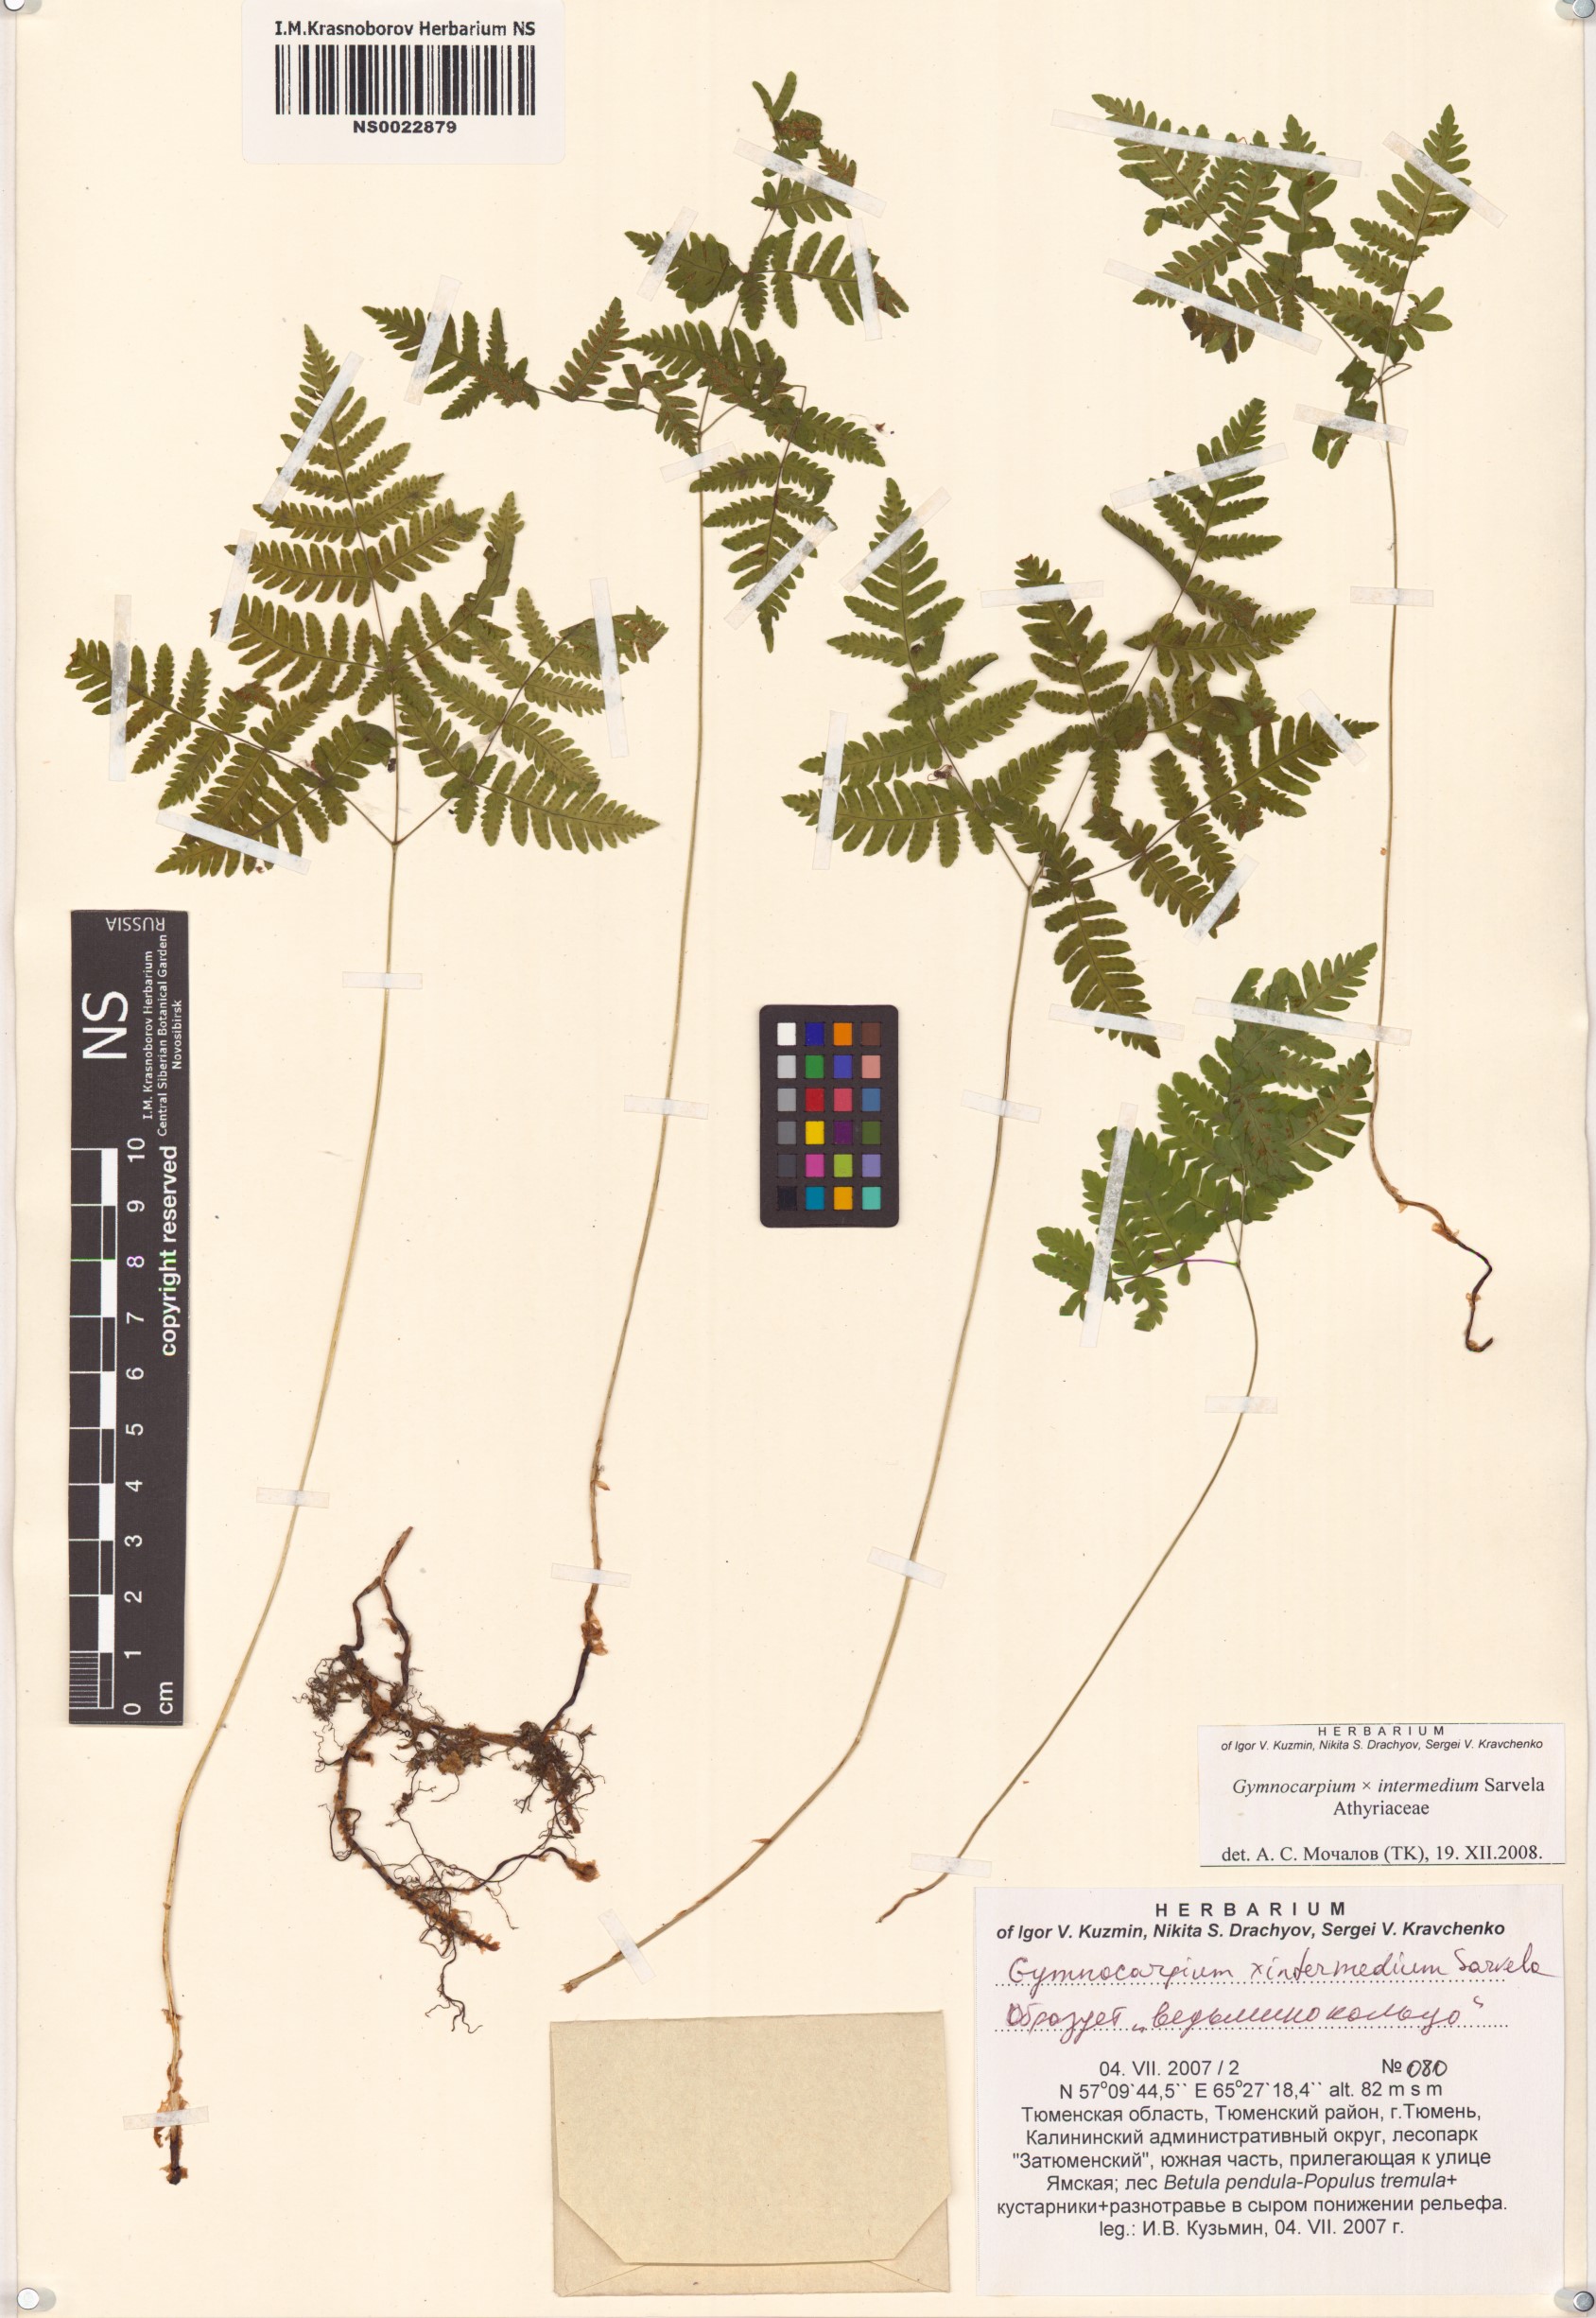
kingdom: Plantae
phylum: Tracheophyta
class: Polypodiopsida
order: Polypodiales
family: Cystopteridaceae
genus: Gymnocarpium
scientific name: Gymnocarpium intermedium
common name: Intermediate oak fern
